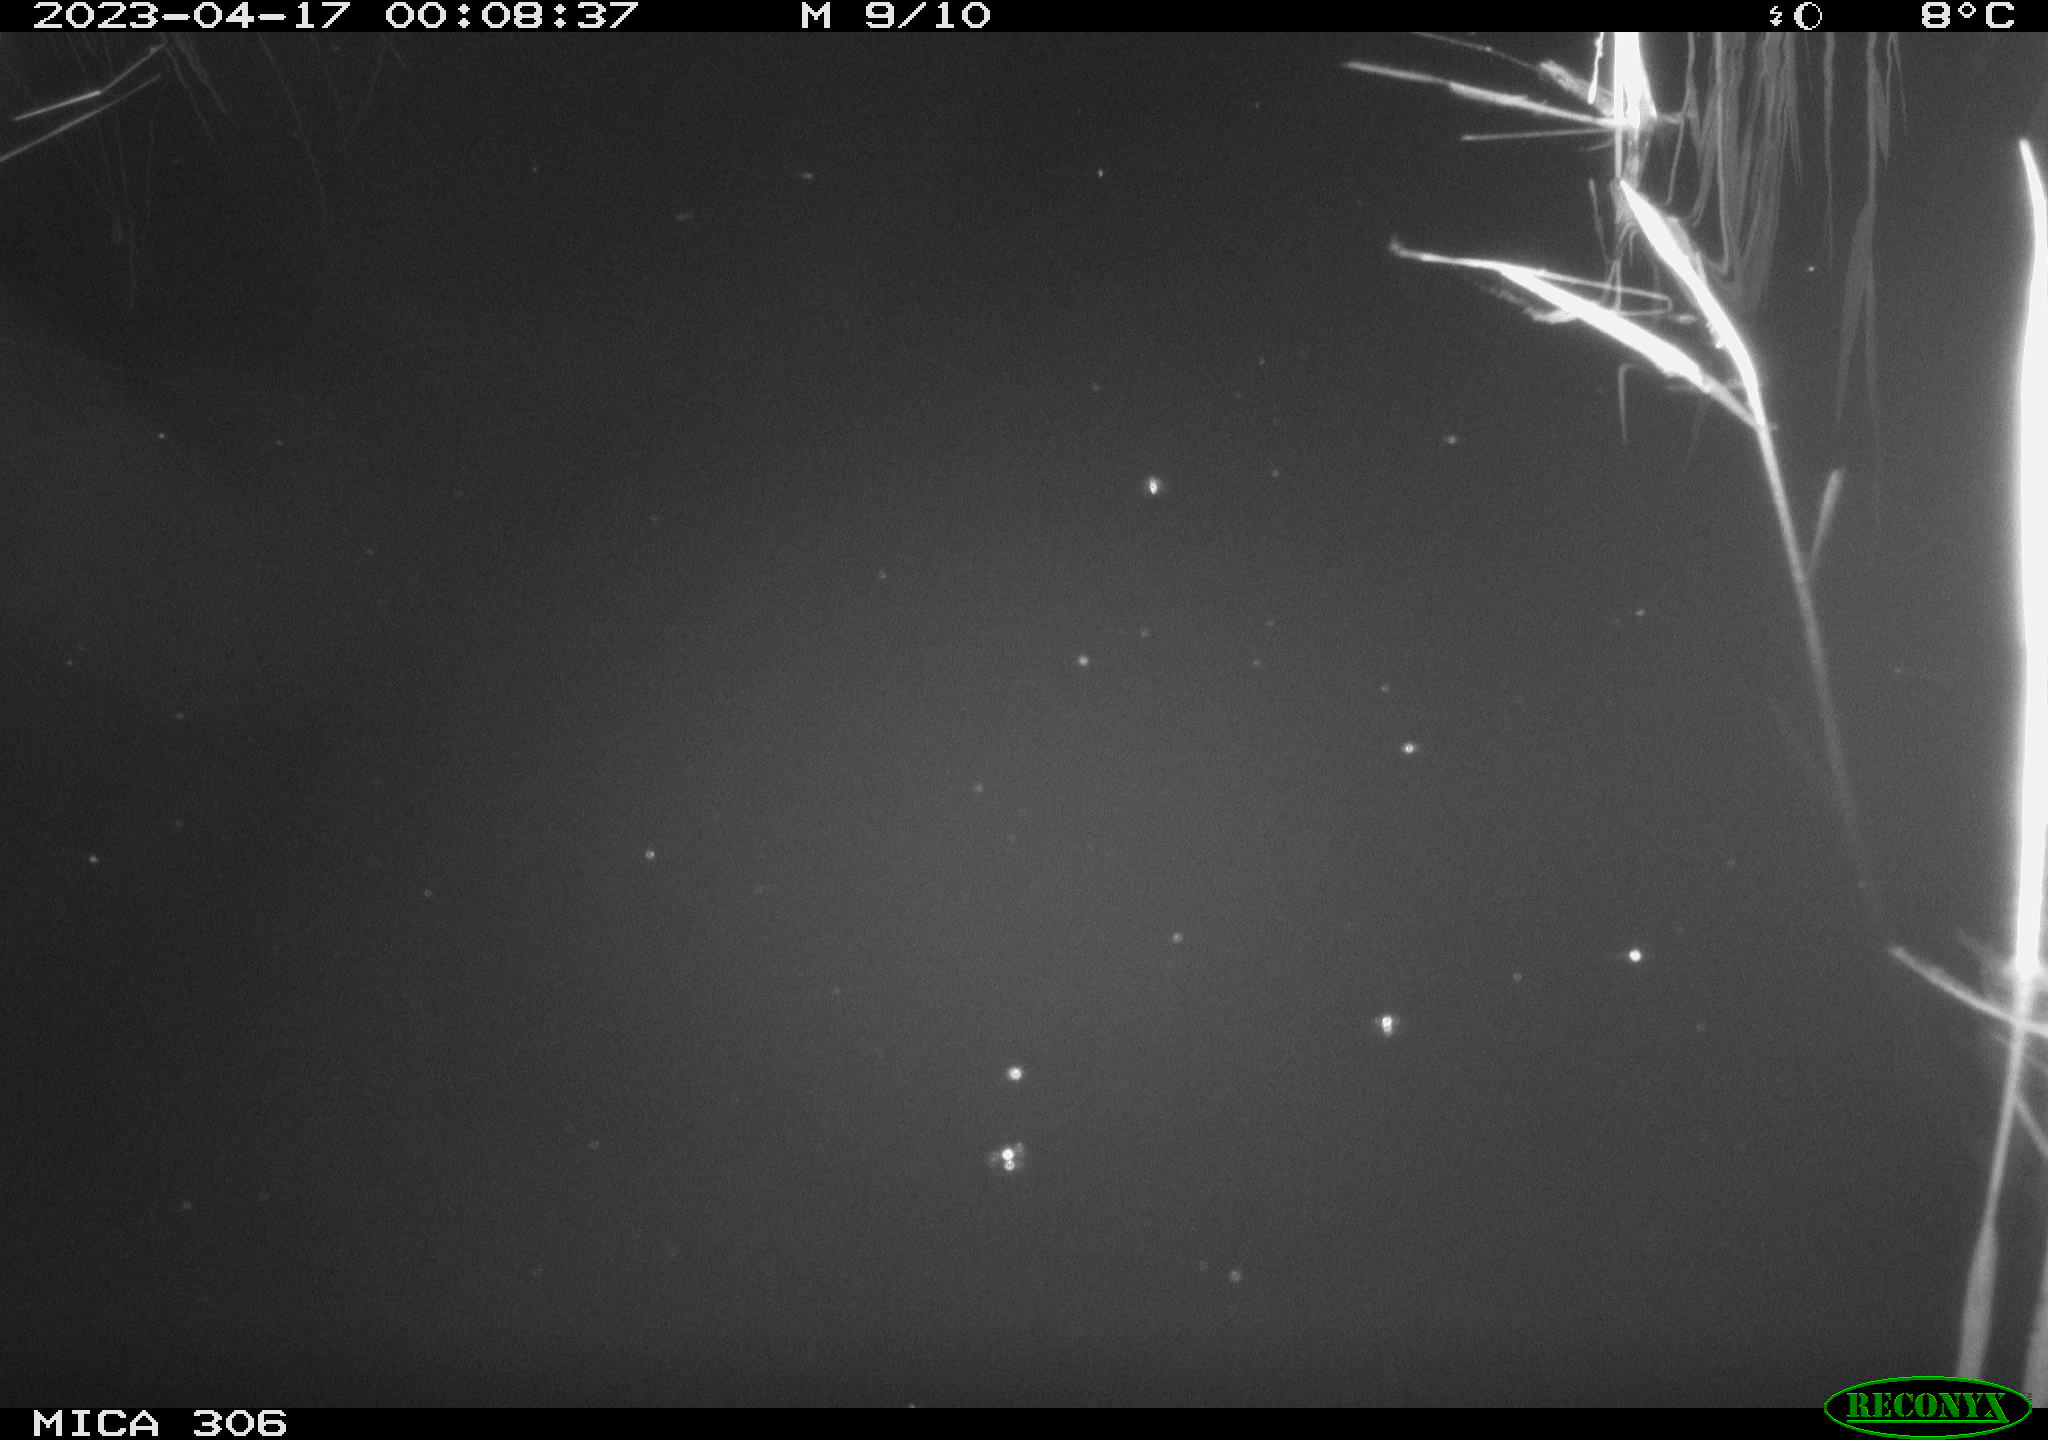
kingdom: Animalia
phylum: Chordata
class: Aves
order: Anseriformes
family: Anatidae
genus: Anas
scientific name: Anas
